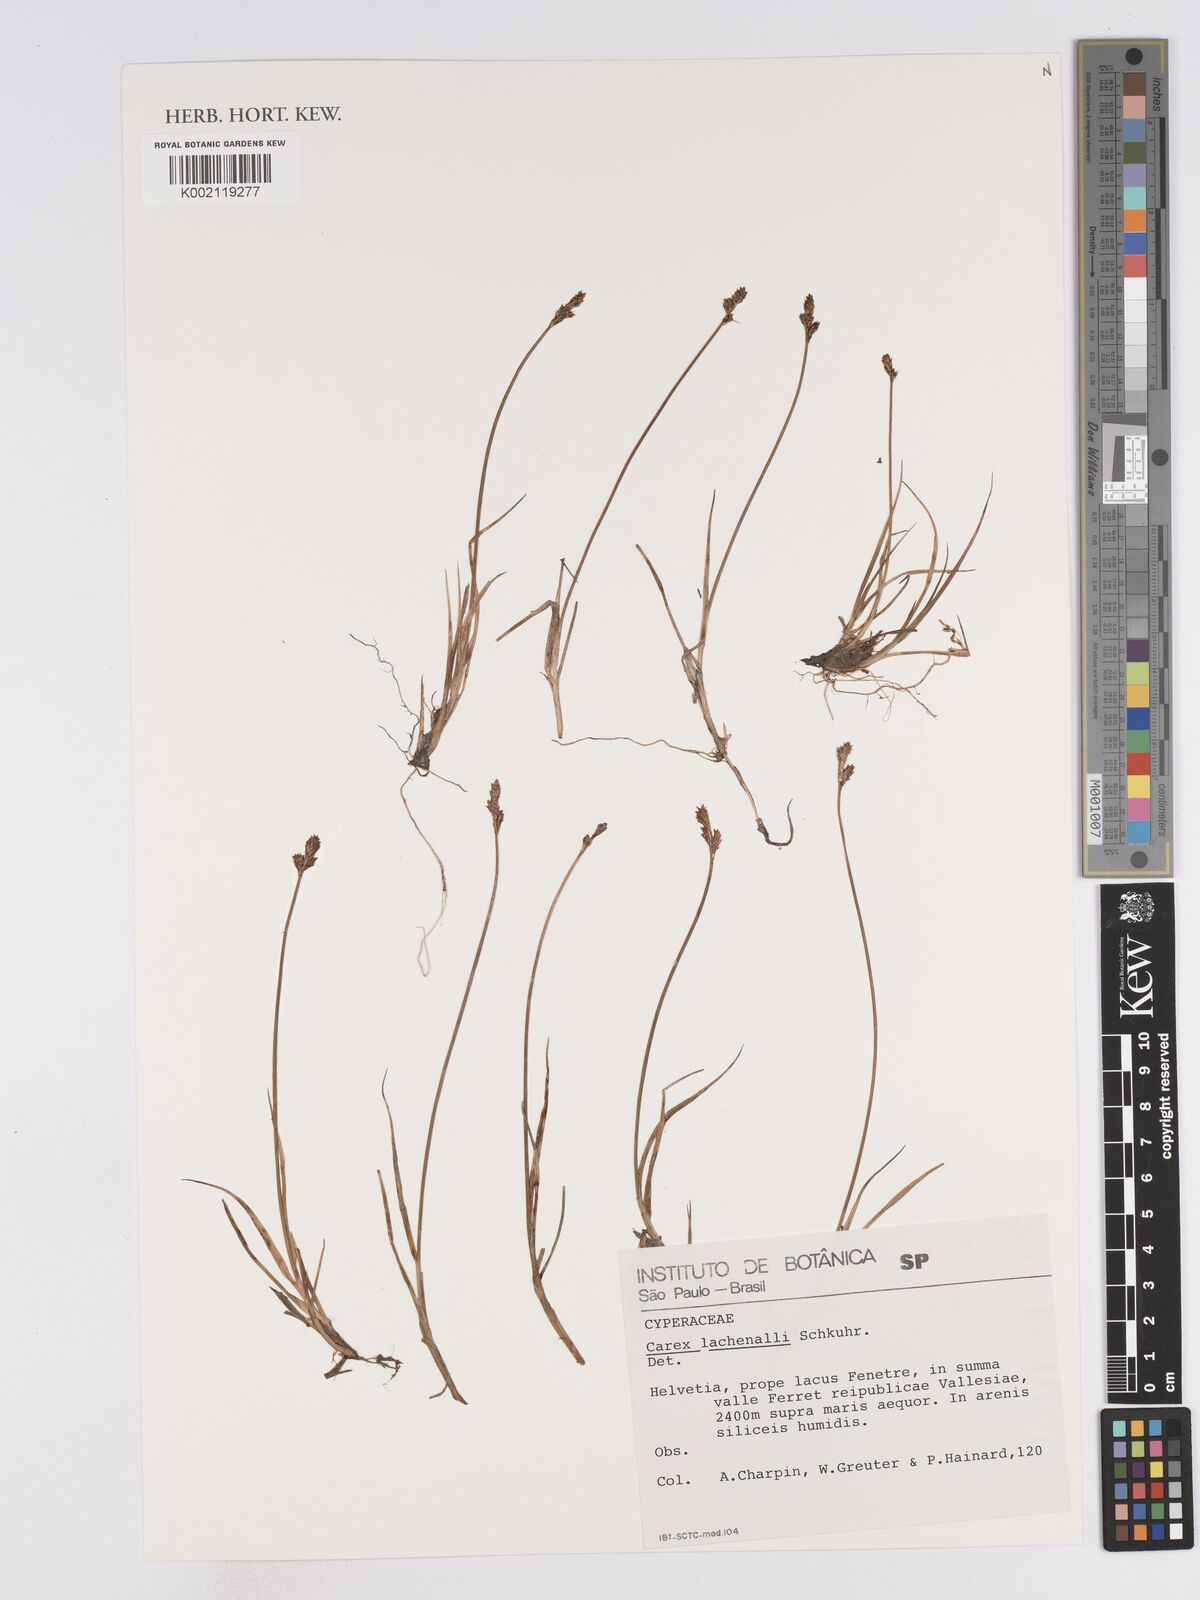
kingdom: Plantae
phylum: Tracheophyta
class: Liliopsida
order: Poales
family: Cyperaceae
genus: Carex
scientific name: Carex lachenalii
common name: Hare's-foot sedge
